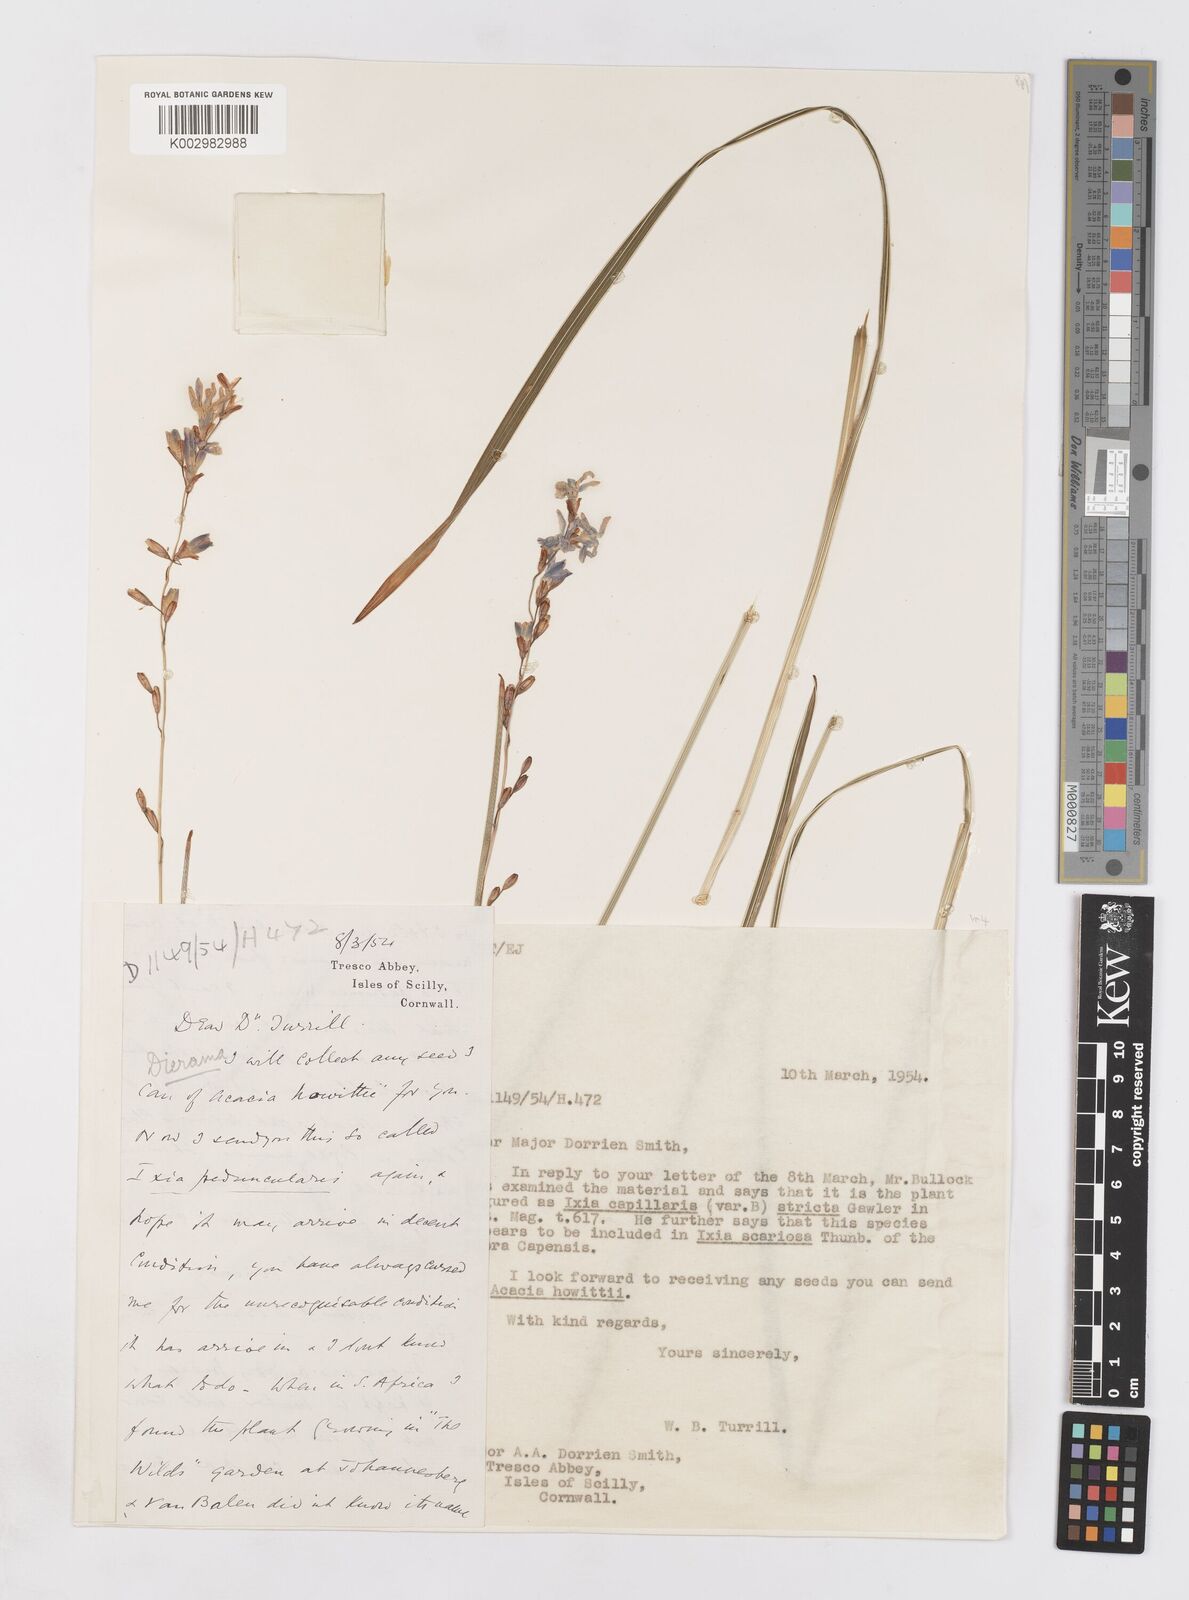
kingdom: Plantae
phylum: Tracheophyta
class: Liliopsida
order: Asparagales
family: Iridaceae
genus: Ixia
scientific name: Ixia capillaris
